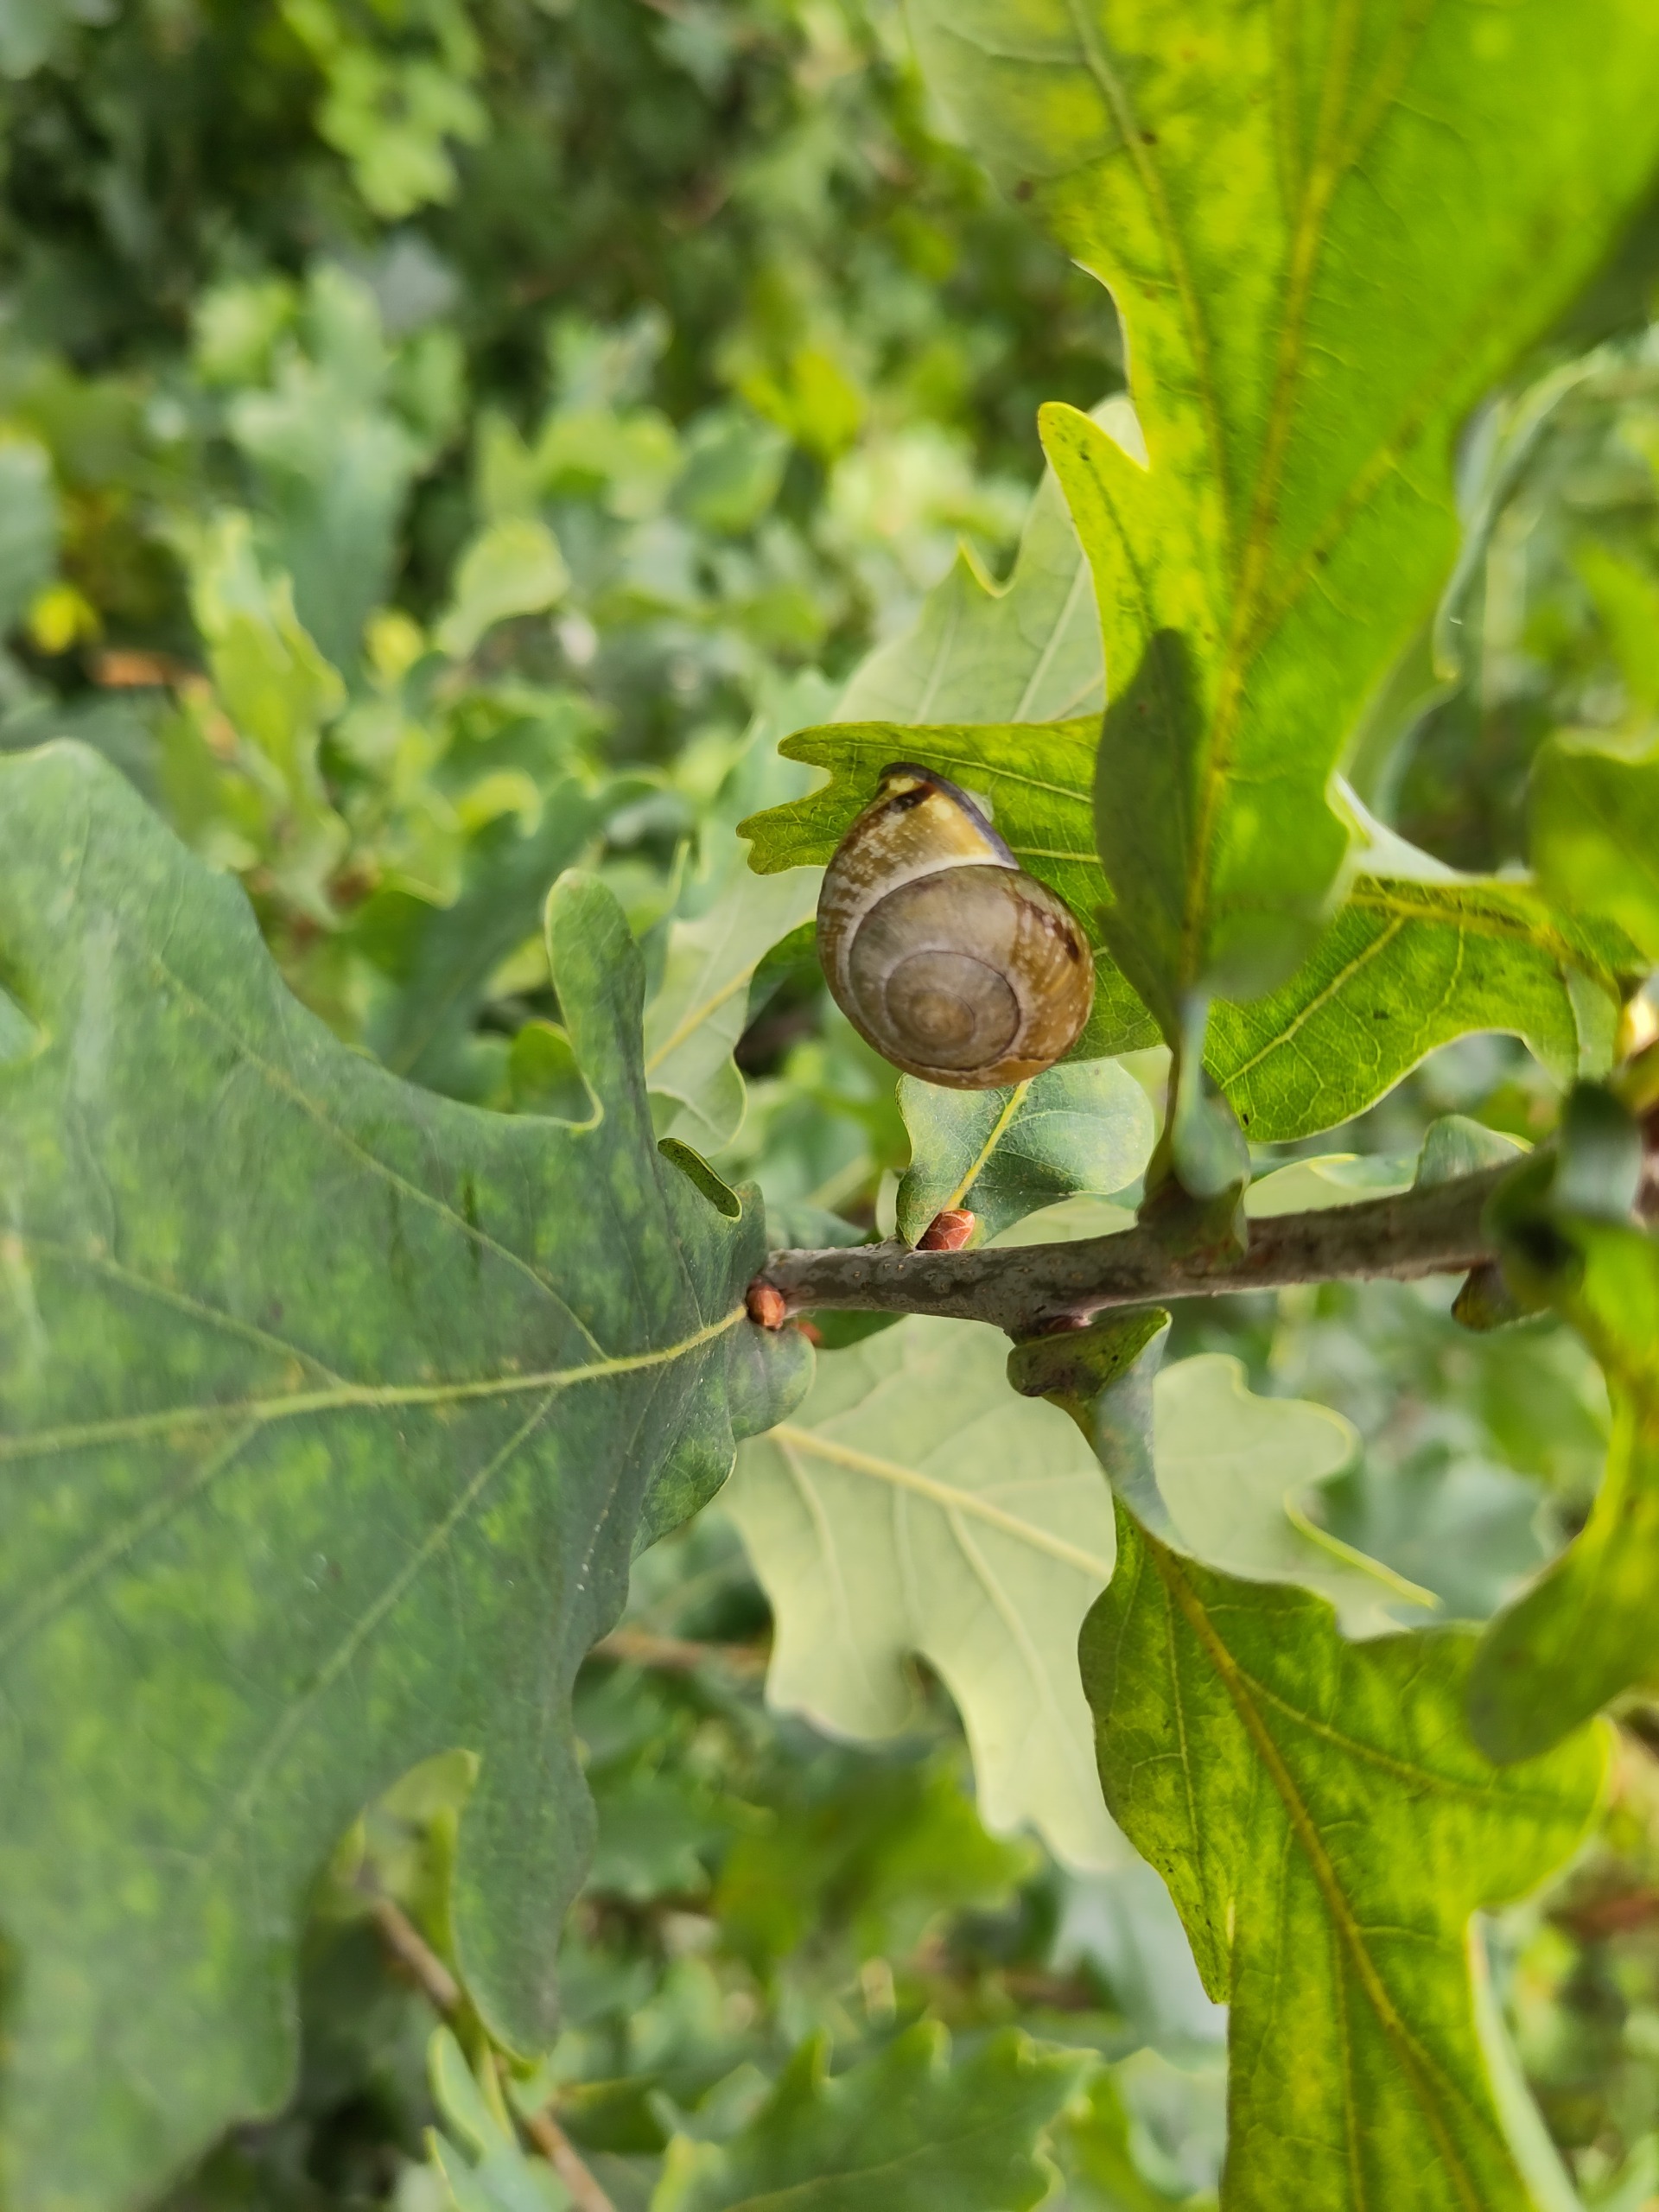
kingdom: Animalia
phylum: Mollusca
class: Gastropoda
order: Stylommatophora
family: Helicidae
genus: Cepaea
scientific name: Cepaea nemoralis
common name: Lundsnegl
